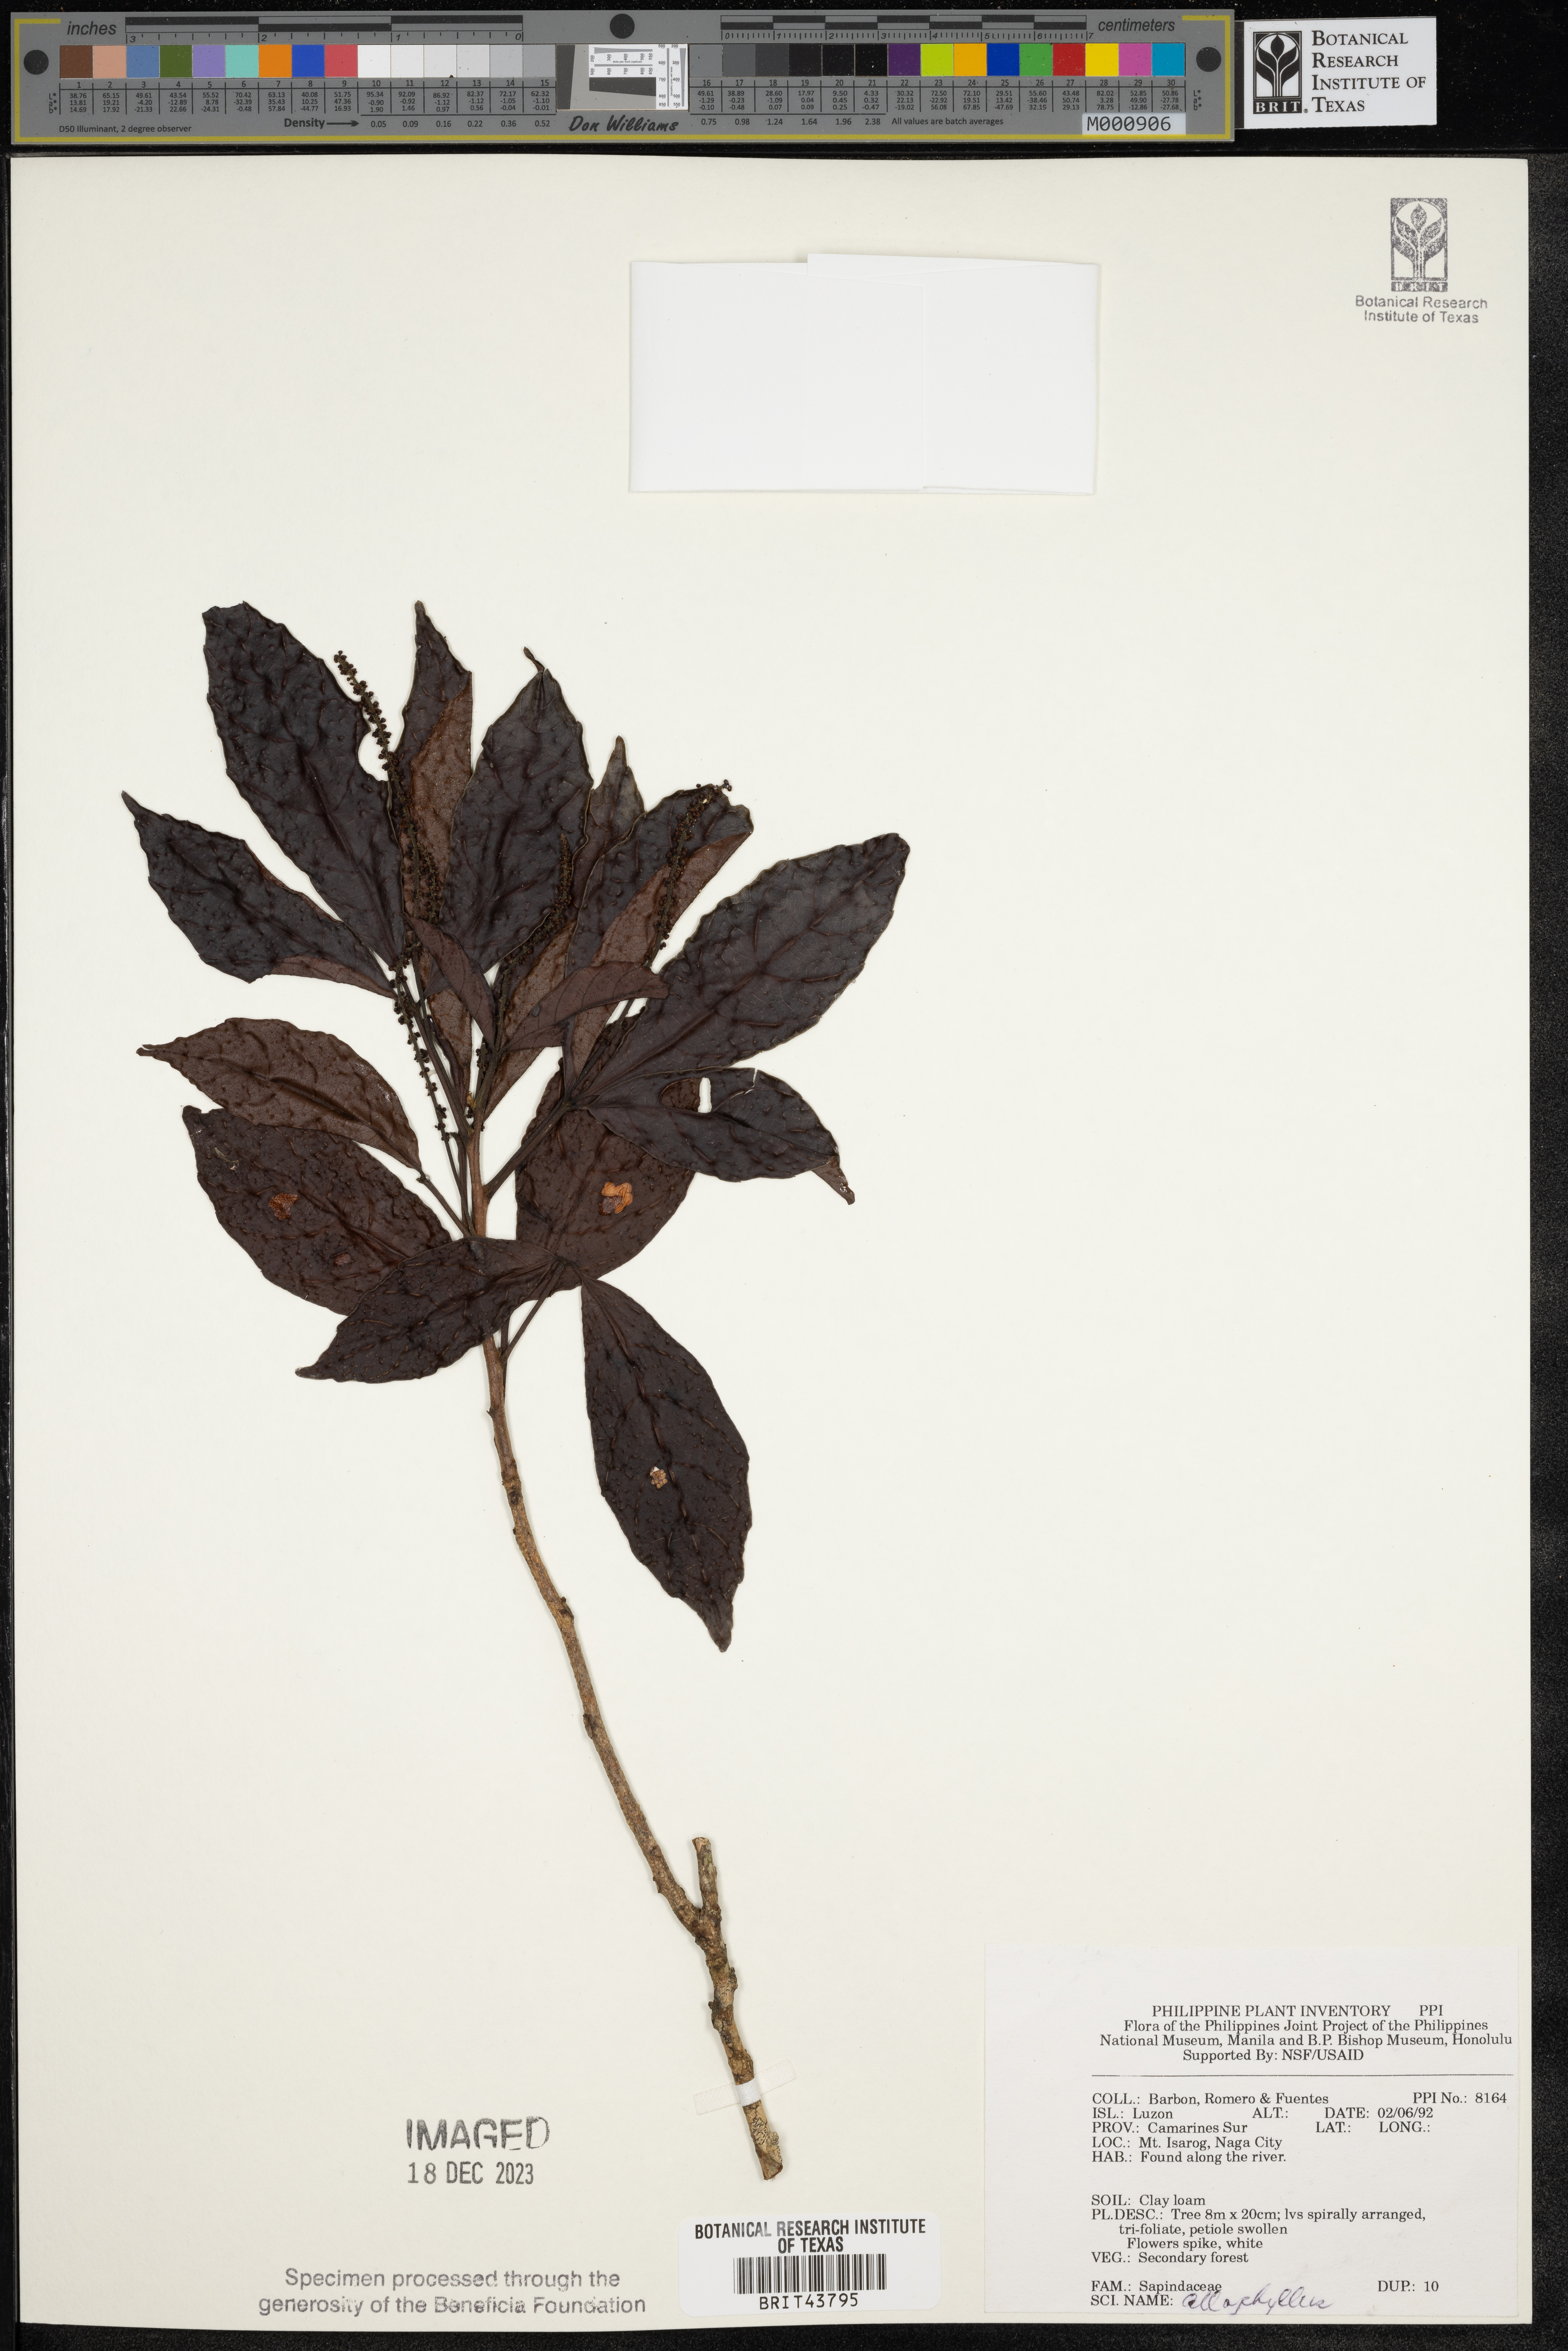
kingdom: Plantae
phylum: Tracheophyta
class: Magnoliopsida
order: Sapindales
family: Sapindaceae
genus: Allophylus
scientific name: Allophylus
